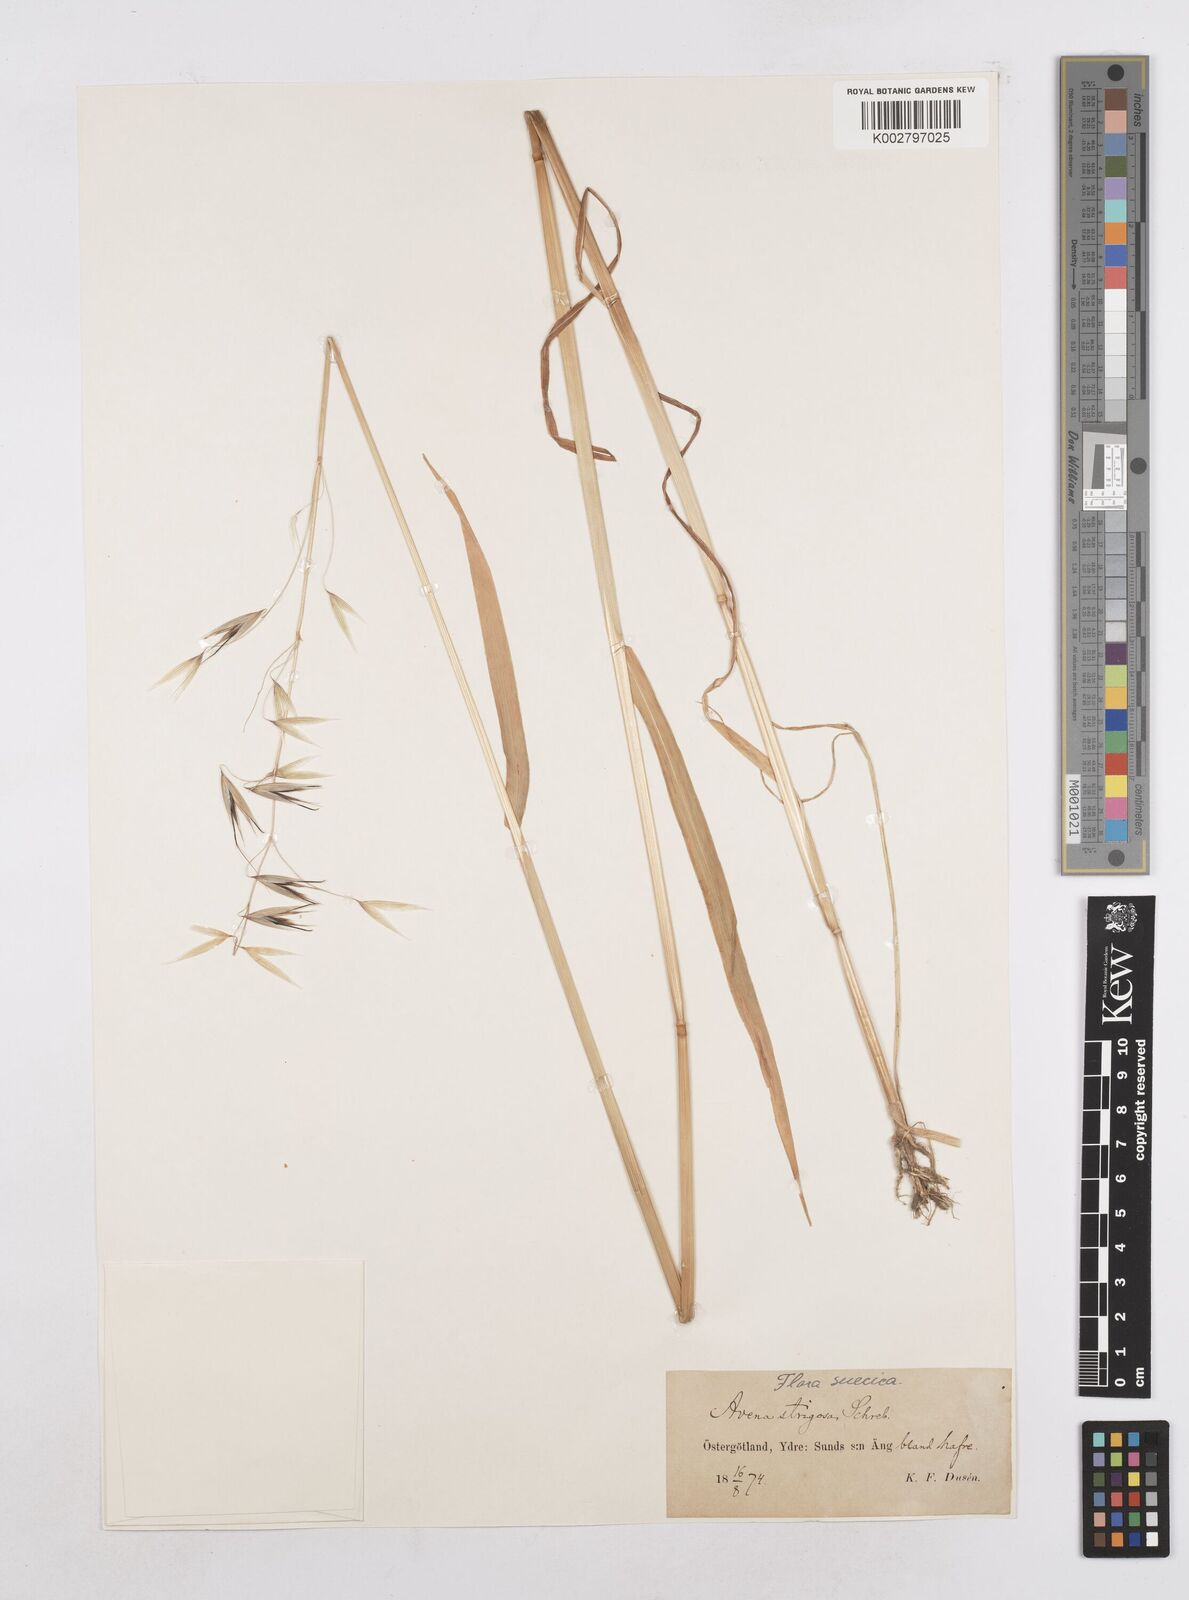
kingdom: Plantae
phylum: Tracheophyta
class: Liliopsida
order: Poales
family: Poaceae
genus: Avena
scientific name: Avena strigosa
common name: Bristle oat
